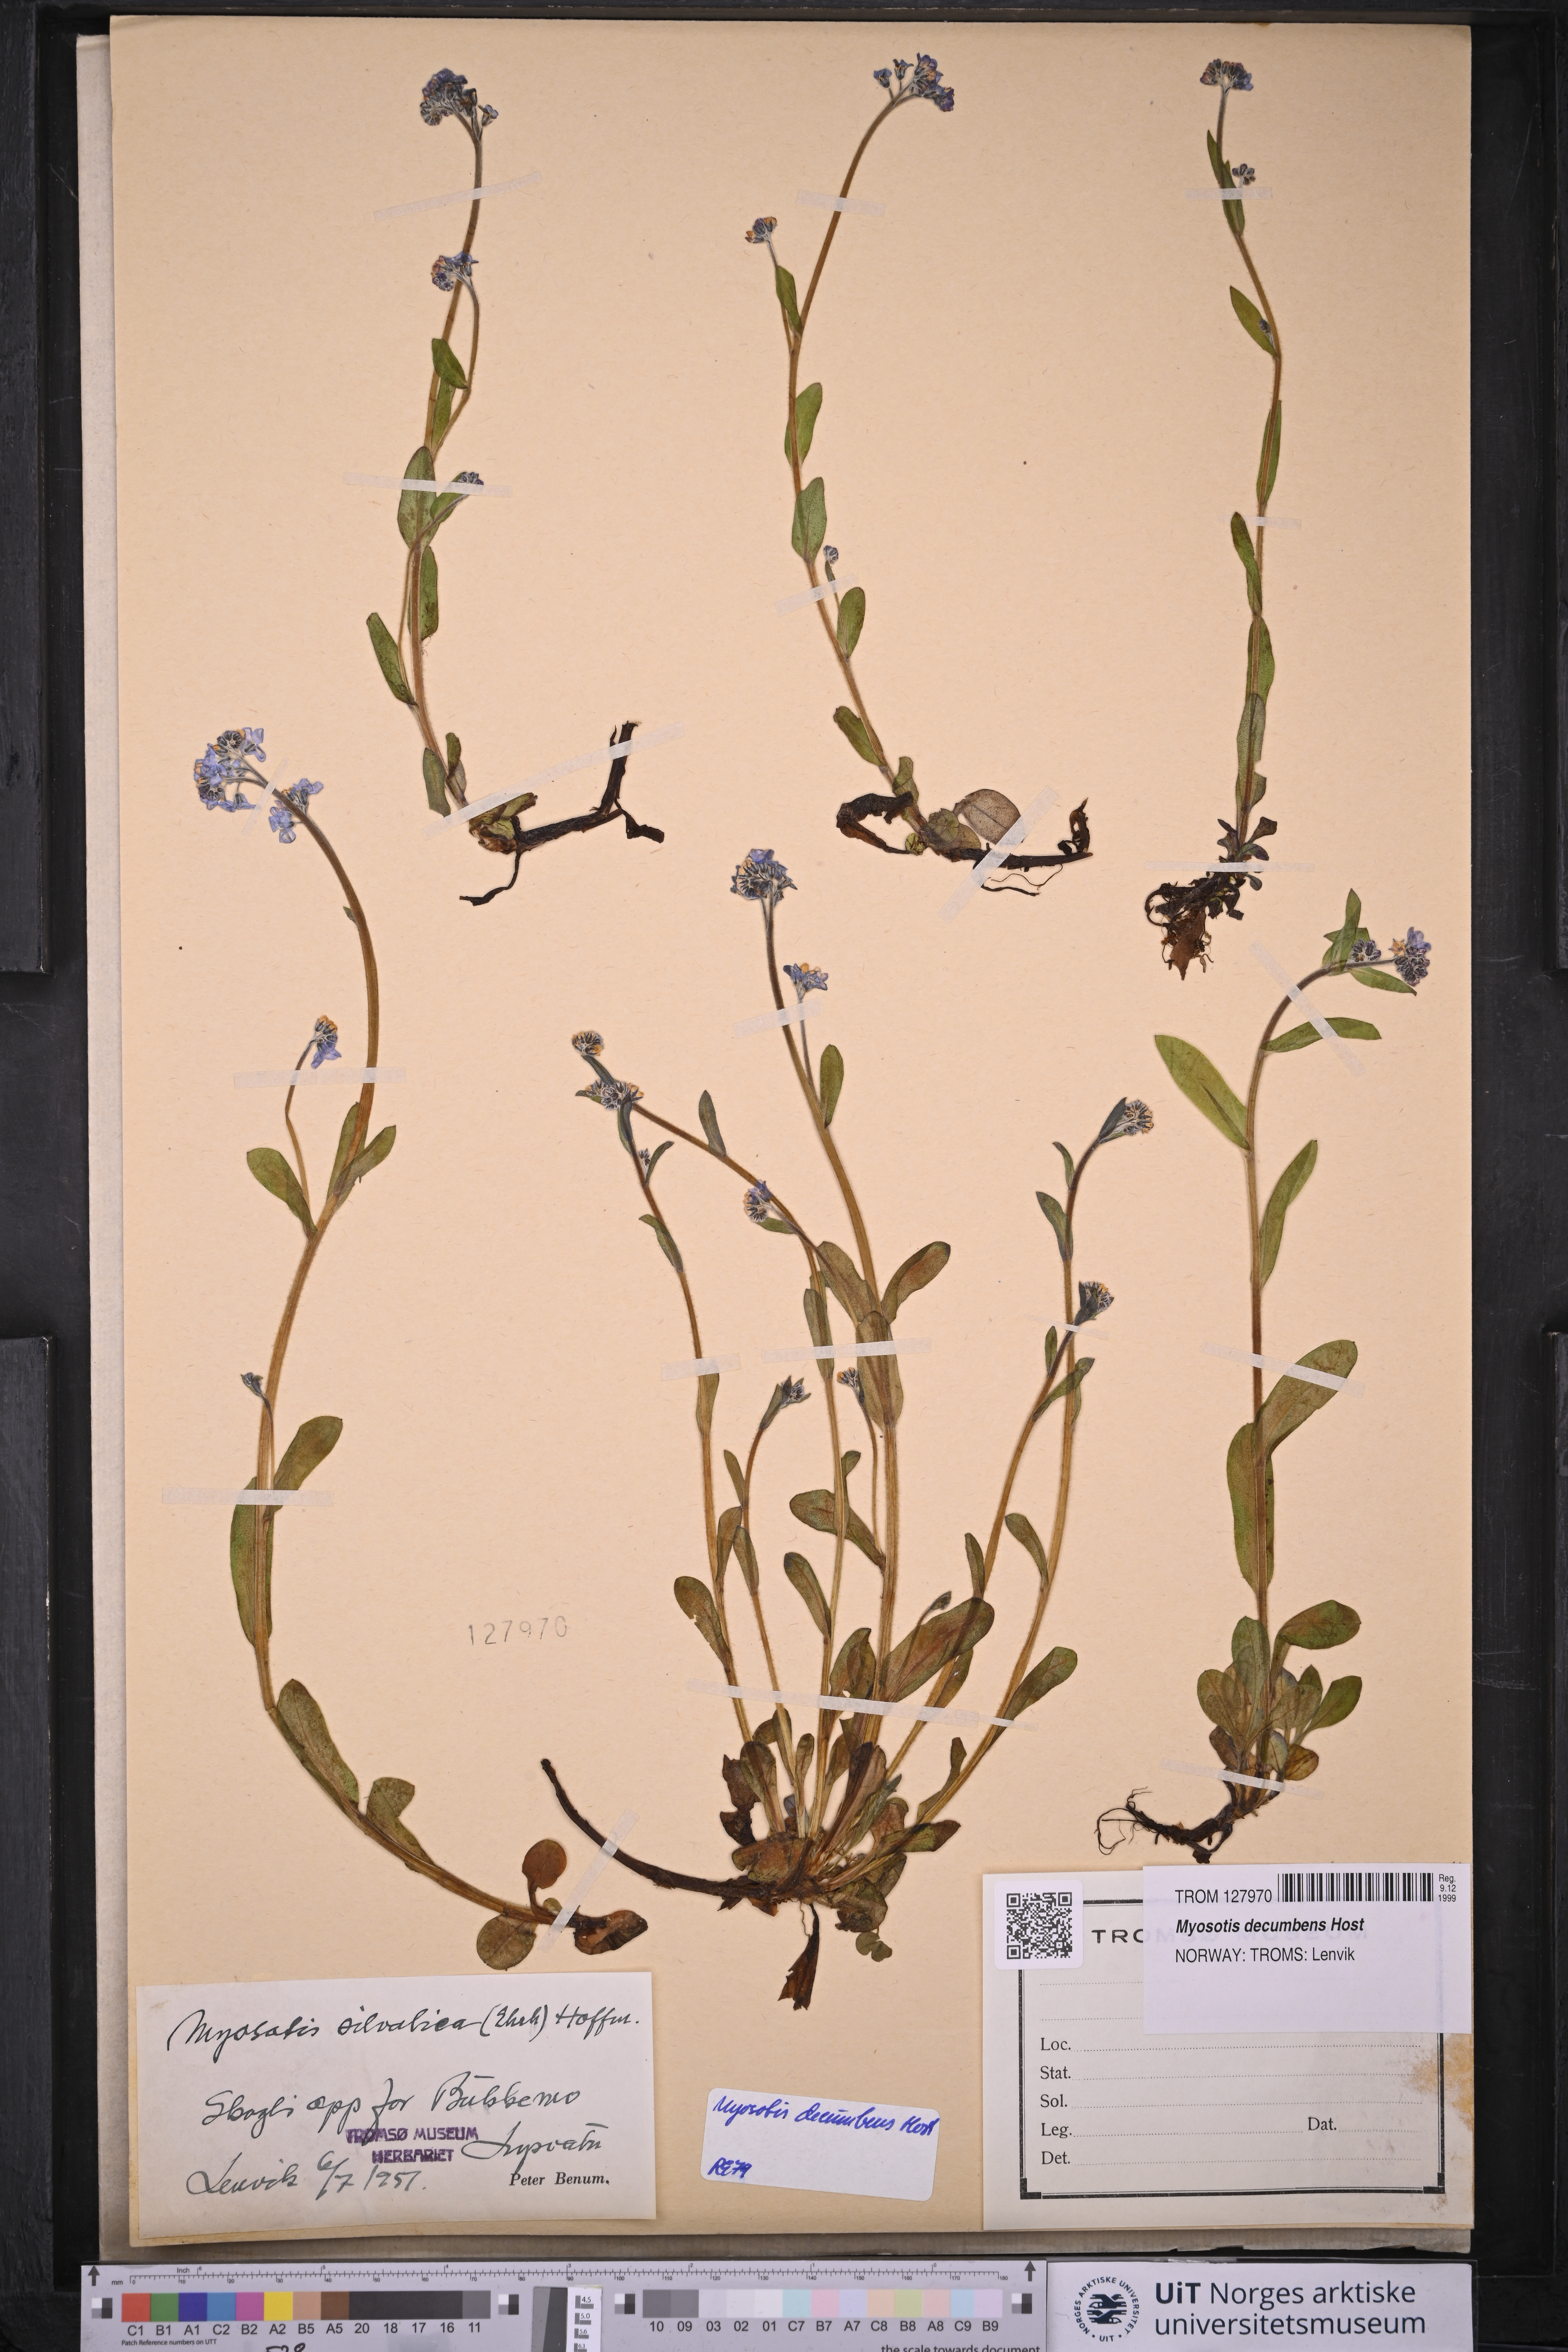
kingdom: Plantae
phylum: Tracheophyta
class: Magnoliopsida
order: Boraginales
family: Boraginaceae
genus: Myosotis
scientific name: Myosotis decumbens
